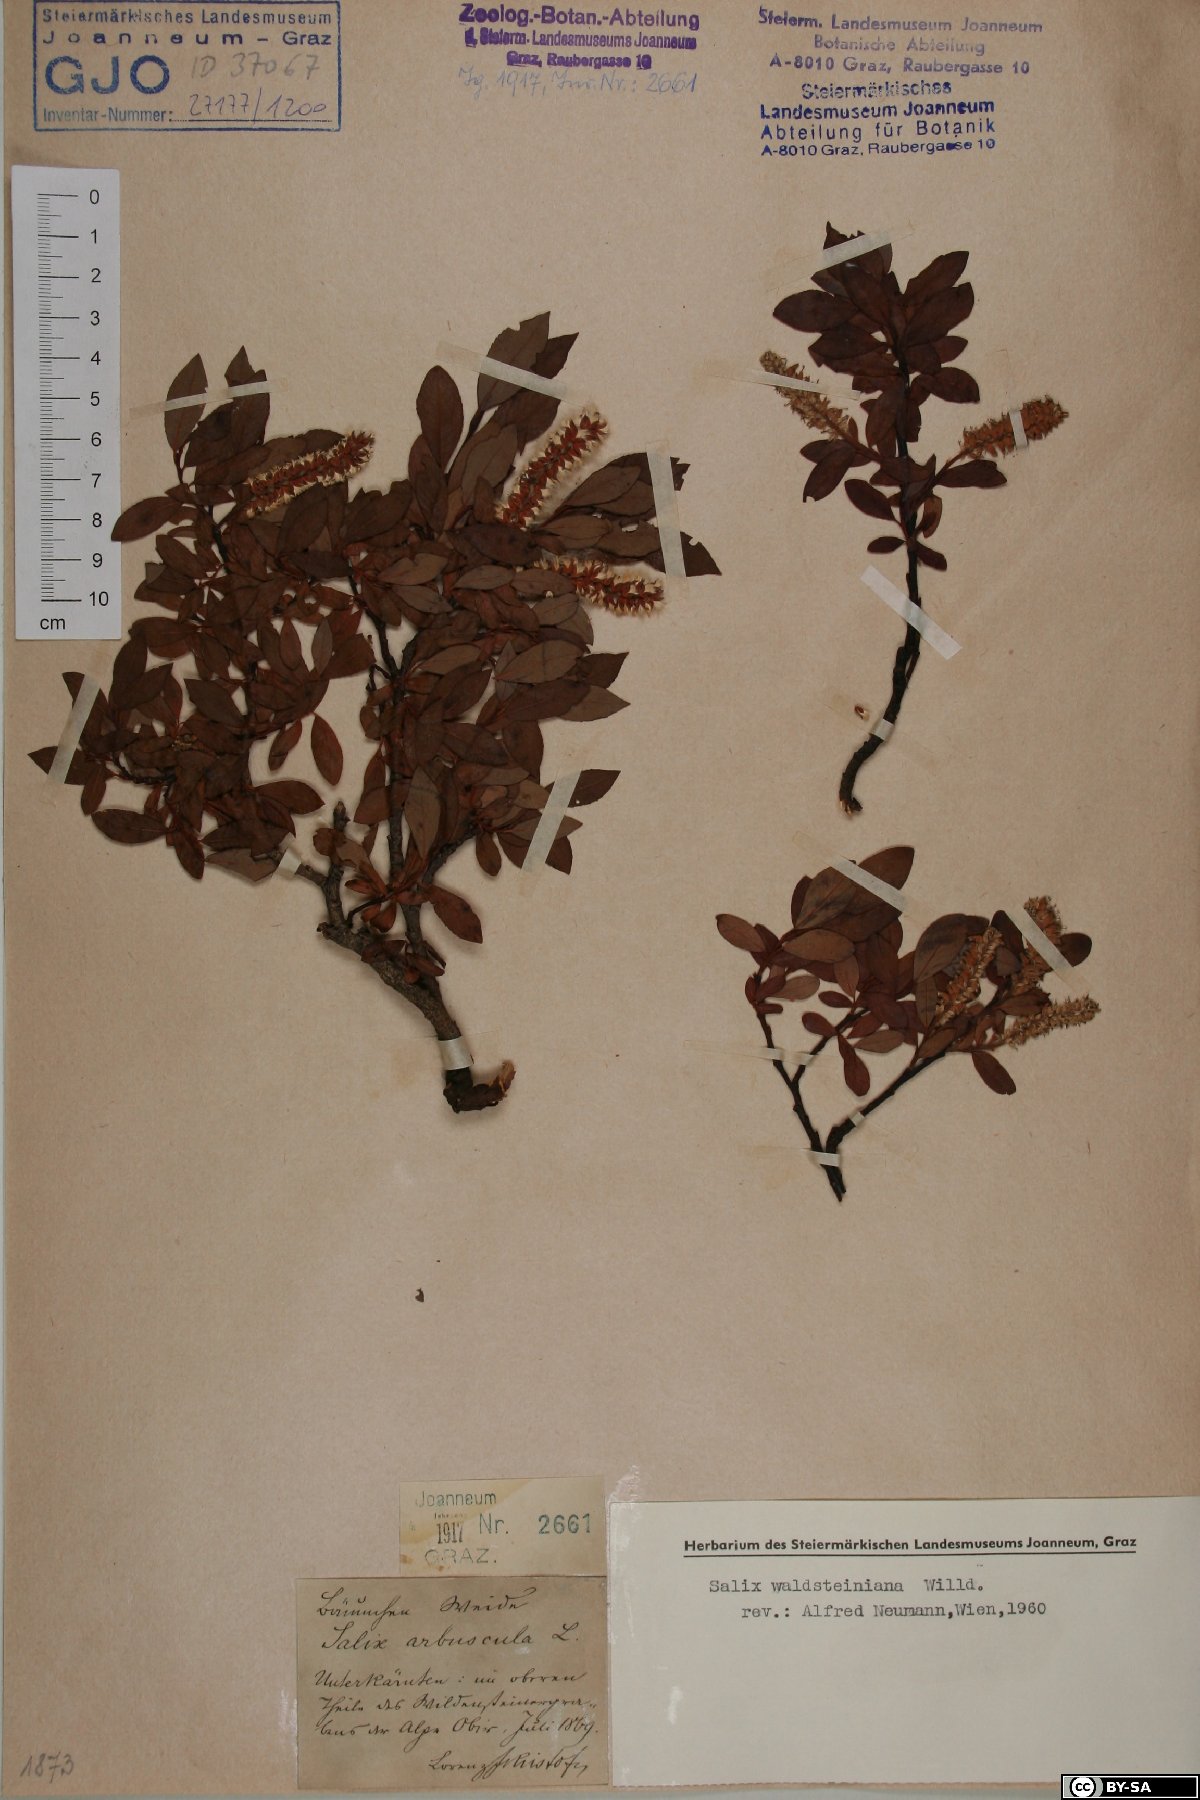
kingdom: Plantae
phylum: Tracheophyta
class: Magnoliopsida
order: Malpighiales
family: Salicaceae
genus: Salix
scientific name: Salix waldsteiniana
